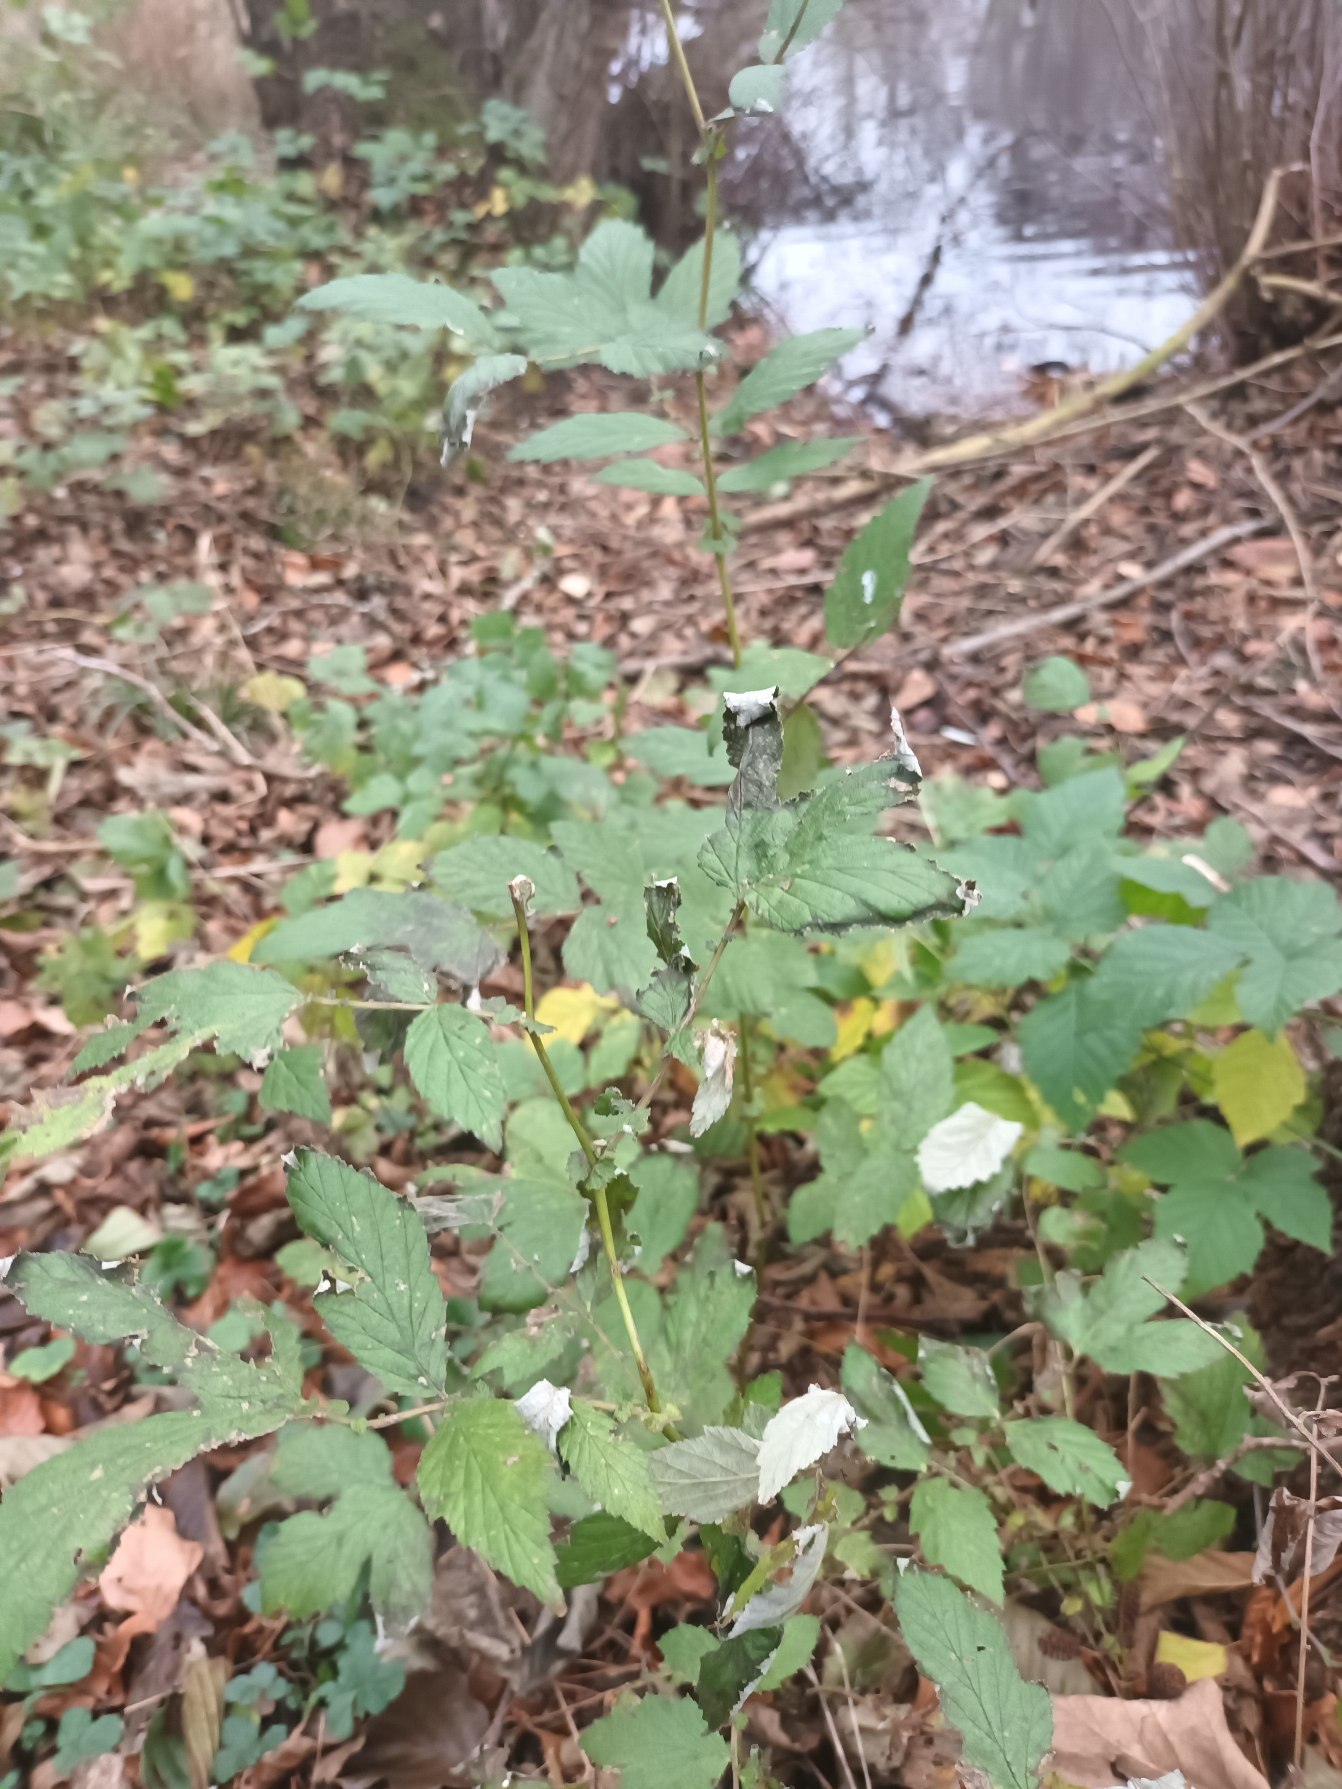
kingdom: Plantae
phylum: Tracheophyta
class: Magnoliopsida
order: Rosales
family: Rosaceae
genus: Filipendula
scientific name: Filipendula ulmaria
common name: Almindelig mjødurt
